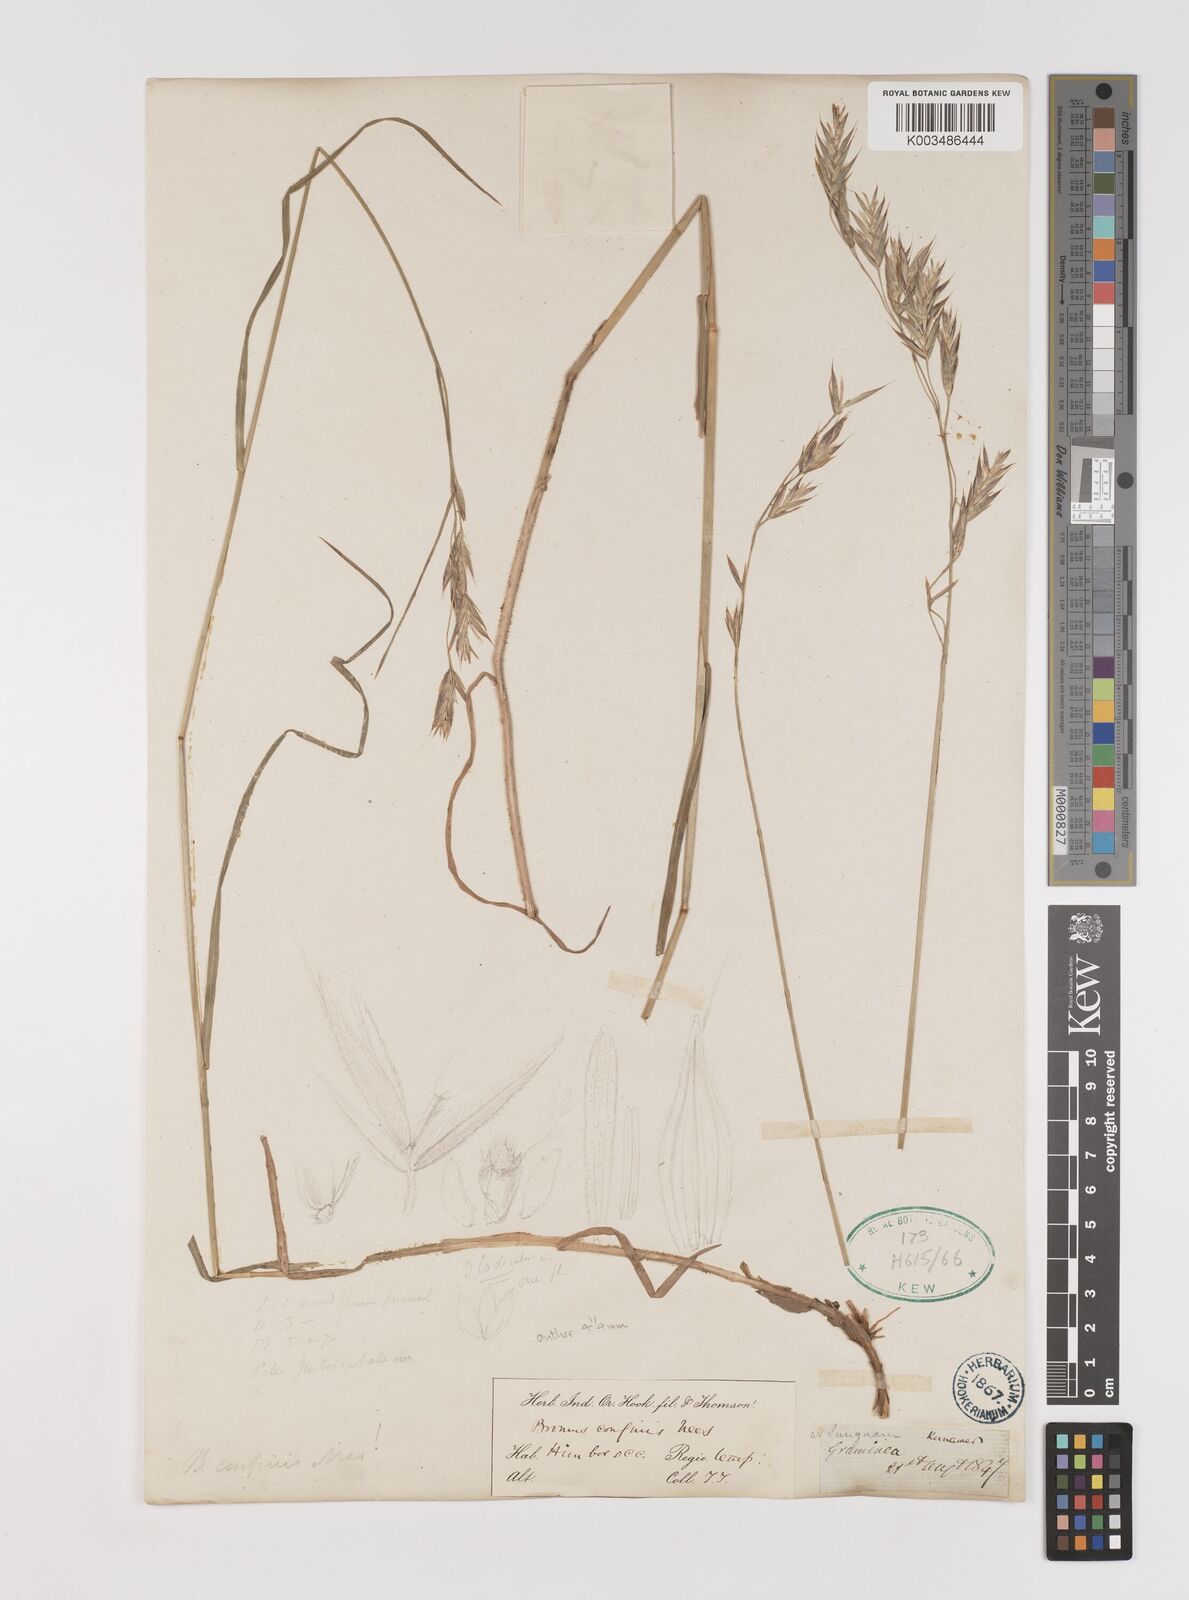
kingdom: Plantae
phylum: Tracheophyta
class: Liliopsida
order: Poales
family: Poaceae
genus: Bromus
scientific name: Bromus confinis
